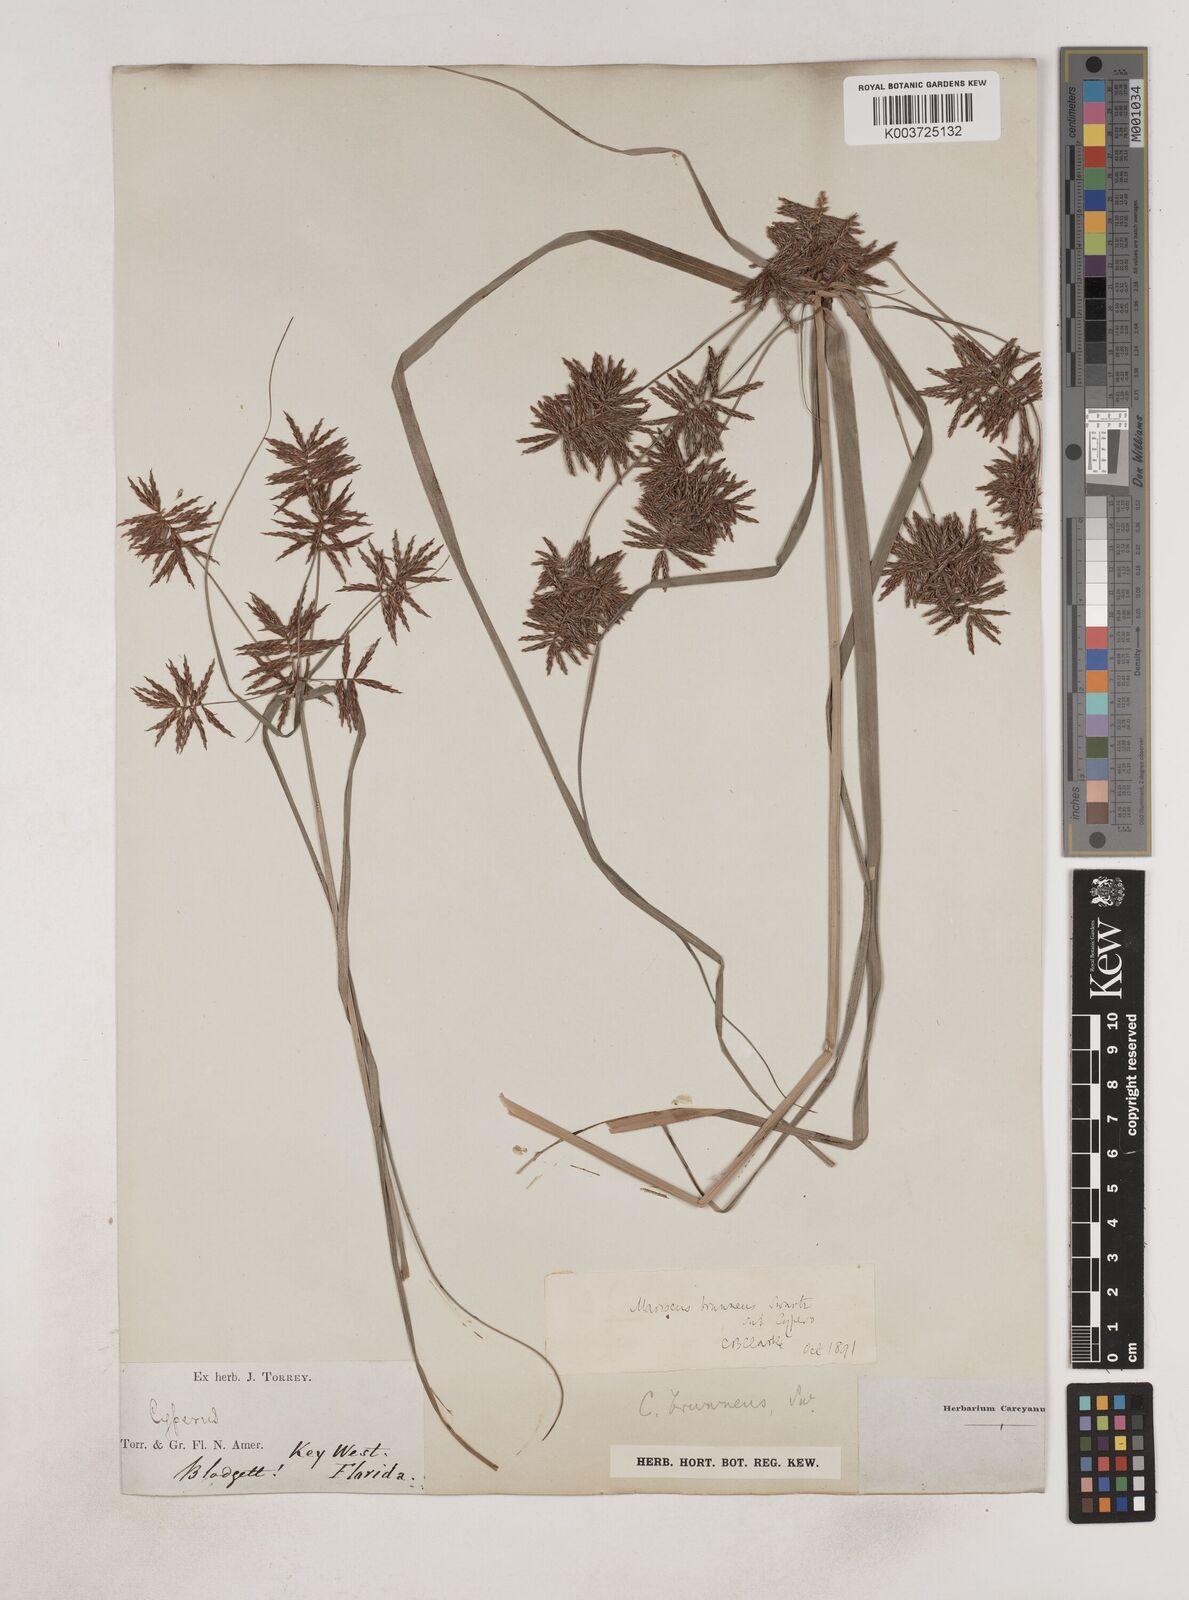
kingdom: Plantae
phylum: Tracheophyta
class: Liliopsida
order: Poales
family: Cyperaceae
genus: Cyperus
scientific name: Cyperus brunneus
